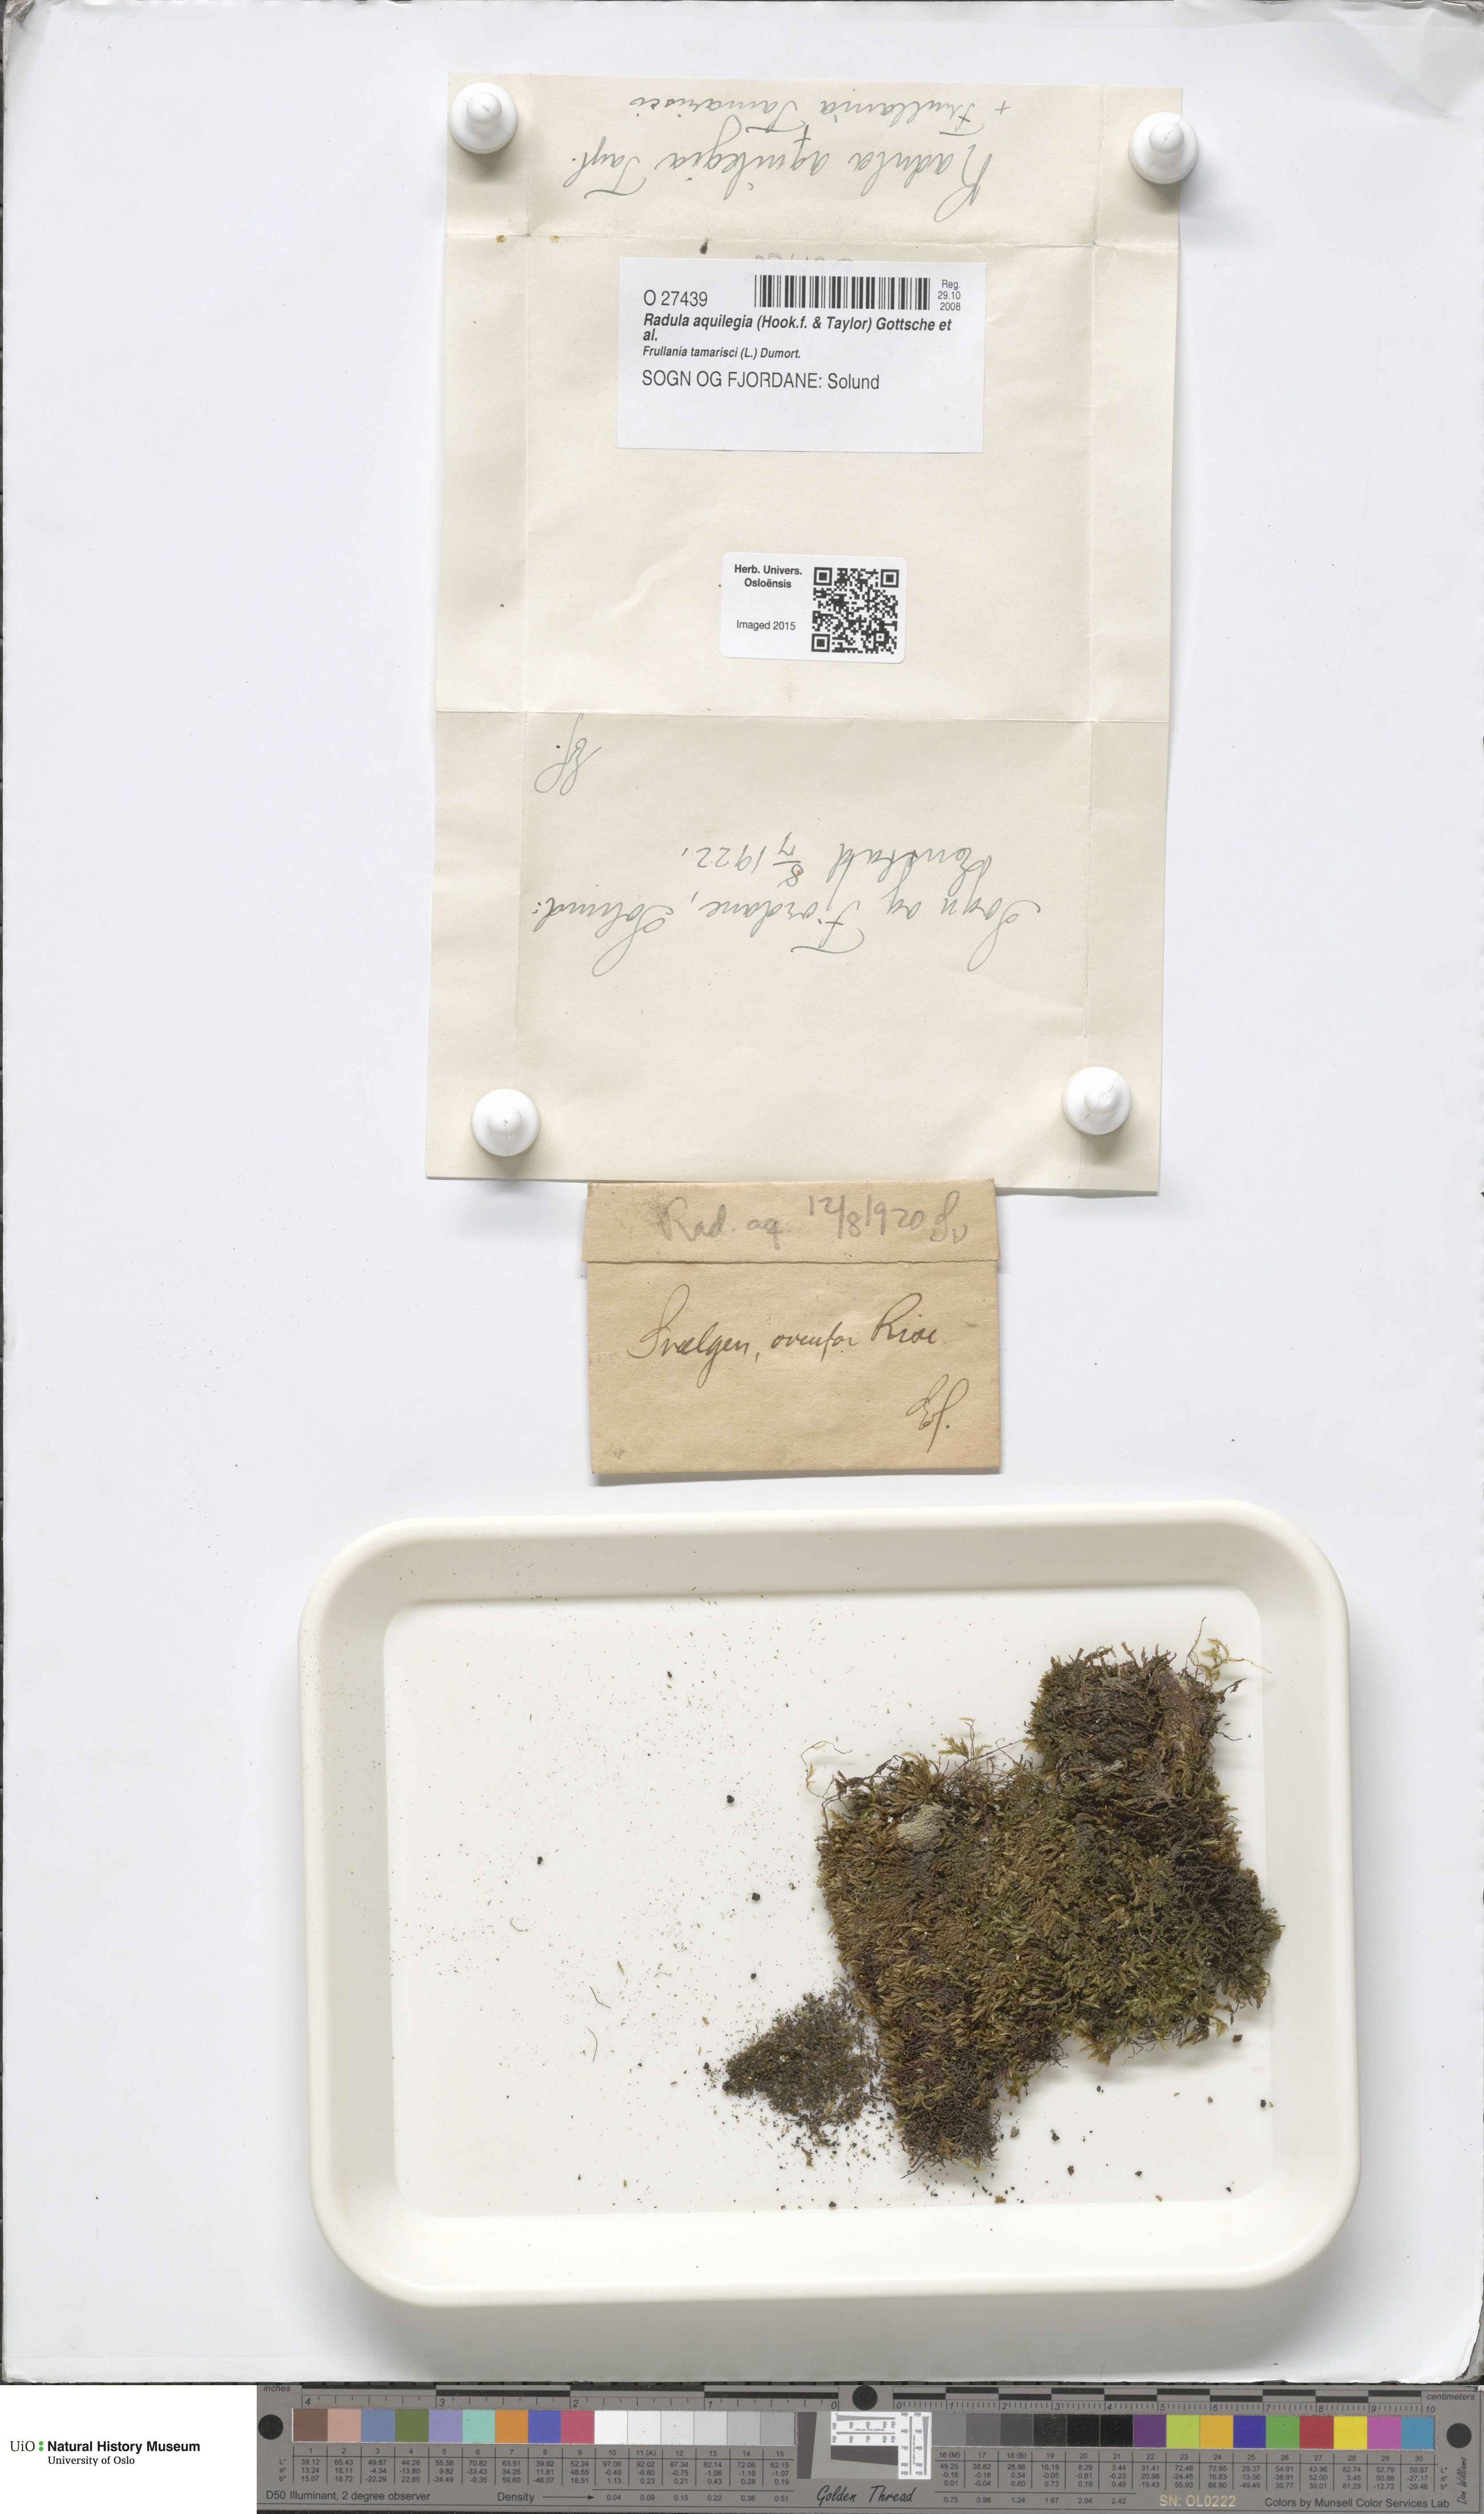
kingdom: Plantae
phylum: Marchantiophyta
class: Jungermanniopsida
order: Porellales
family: Radulaceae
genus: Radula
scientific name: Radula aquilegia
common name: Brown scalewort
